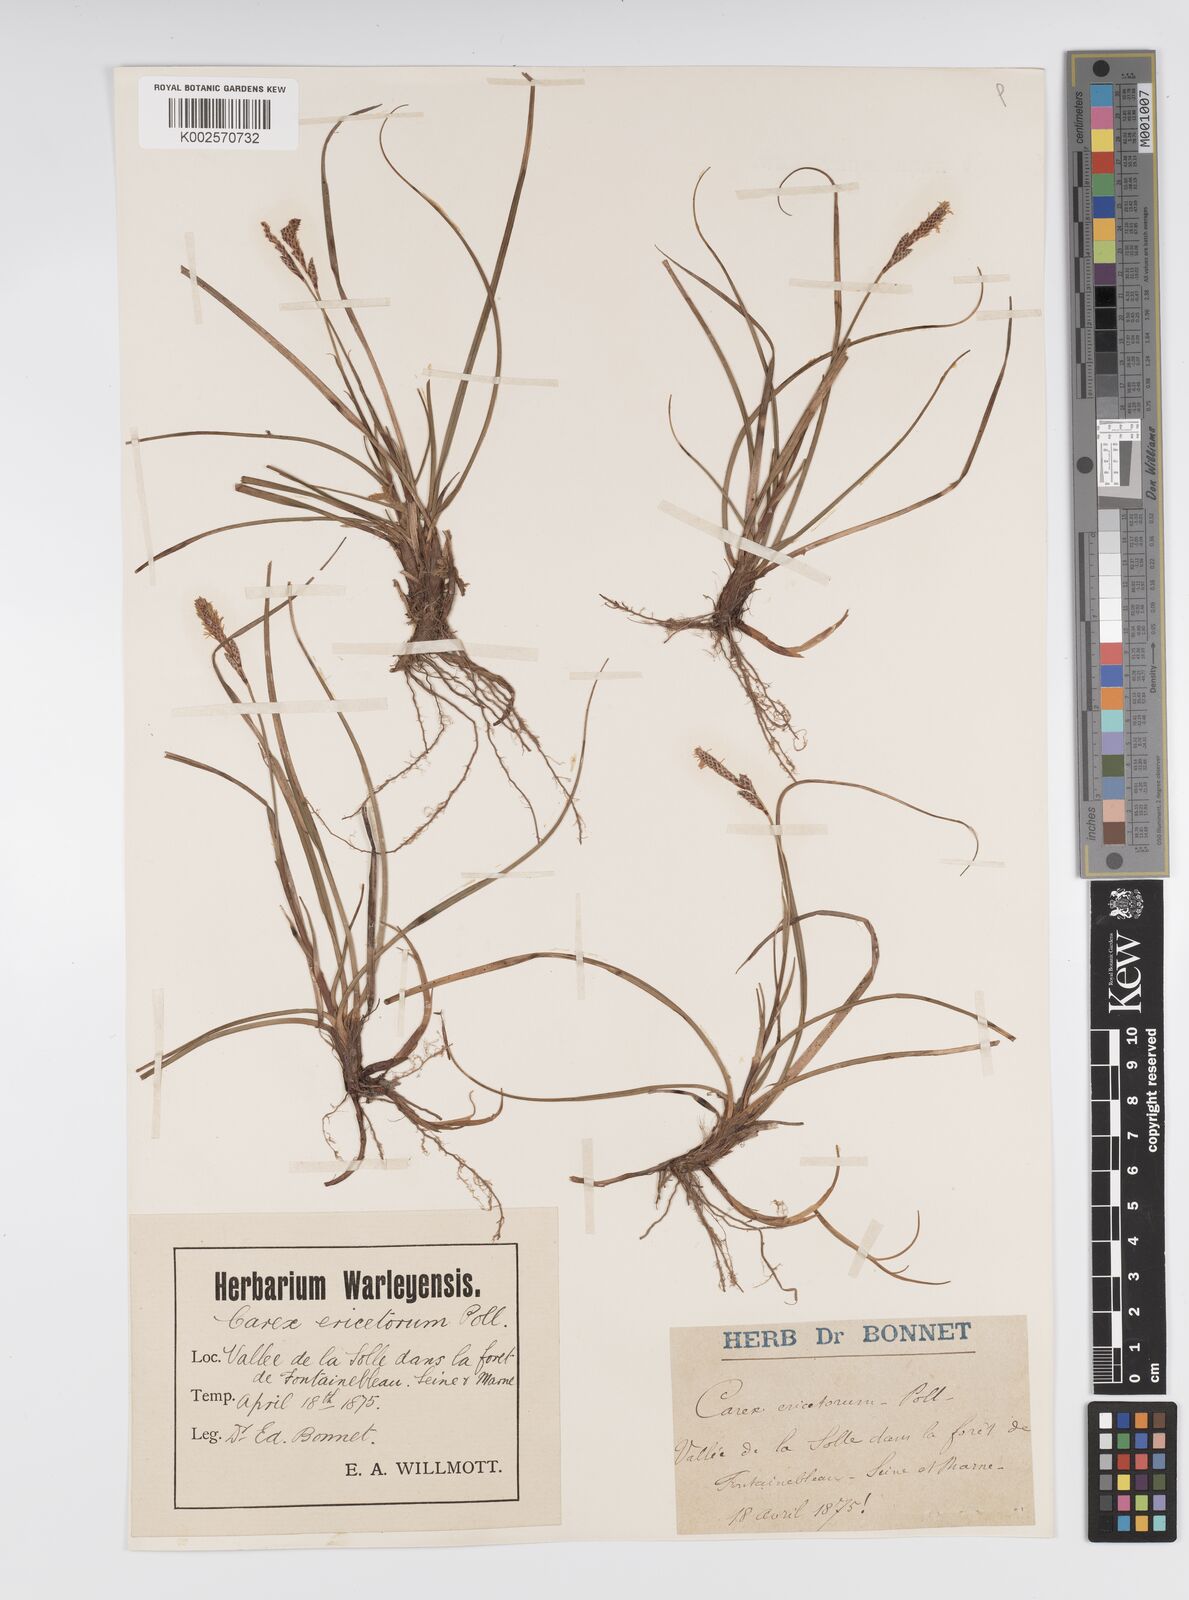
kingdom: Plantae
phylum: Tracheophyta
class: Liliopsida
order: Poales
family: Cyperaceae
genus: Carex
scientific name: Carex ericetorum
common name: Rare spring-sedge
